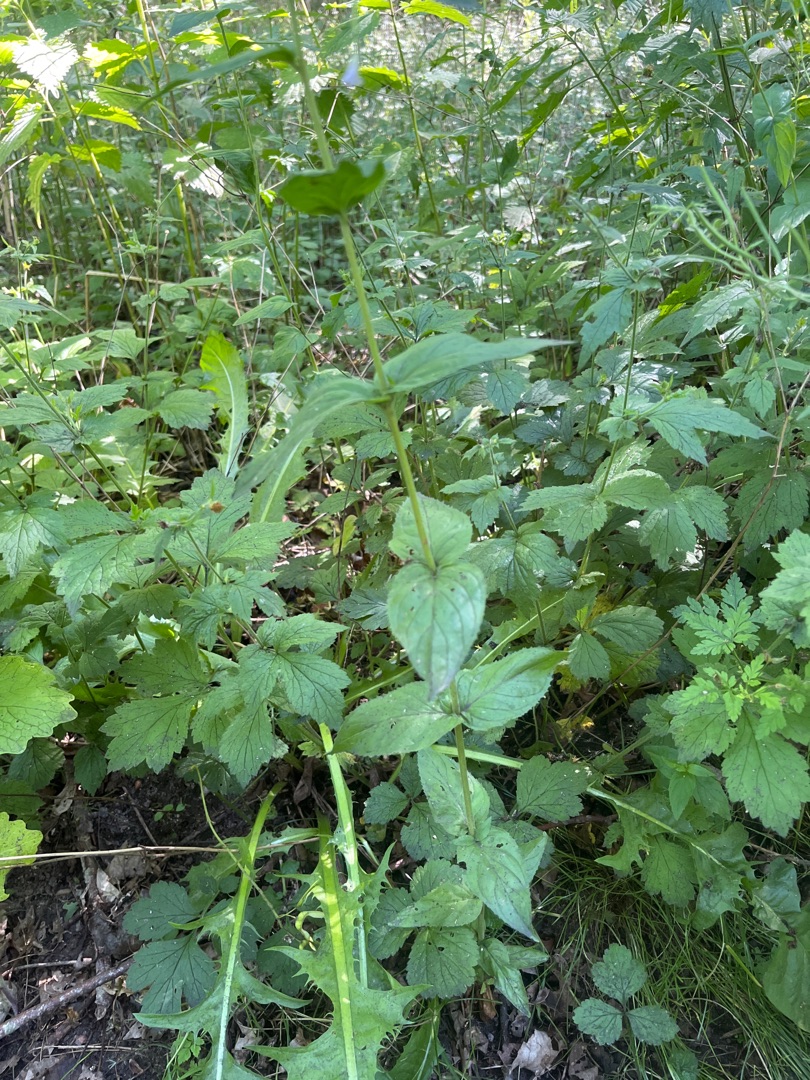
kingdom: Plantae
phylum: Tracheophyta
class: Magnoliopsida
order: Myrtales
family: Onagraceae
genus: Epilobium
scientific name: Epilobium montanum
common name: Glat dueurt
